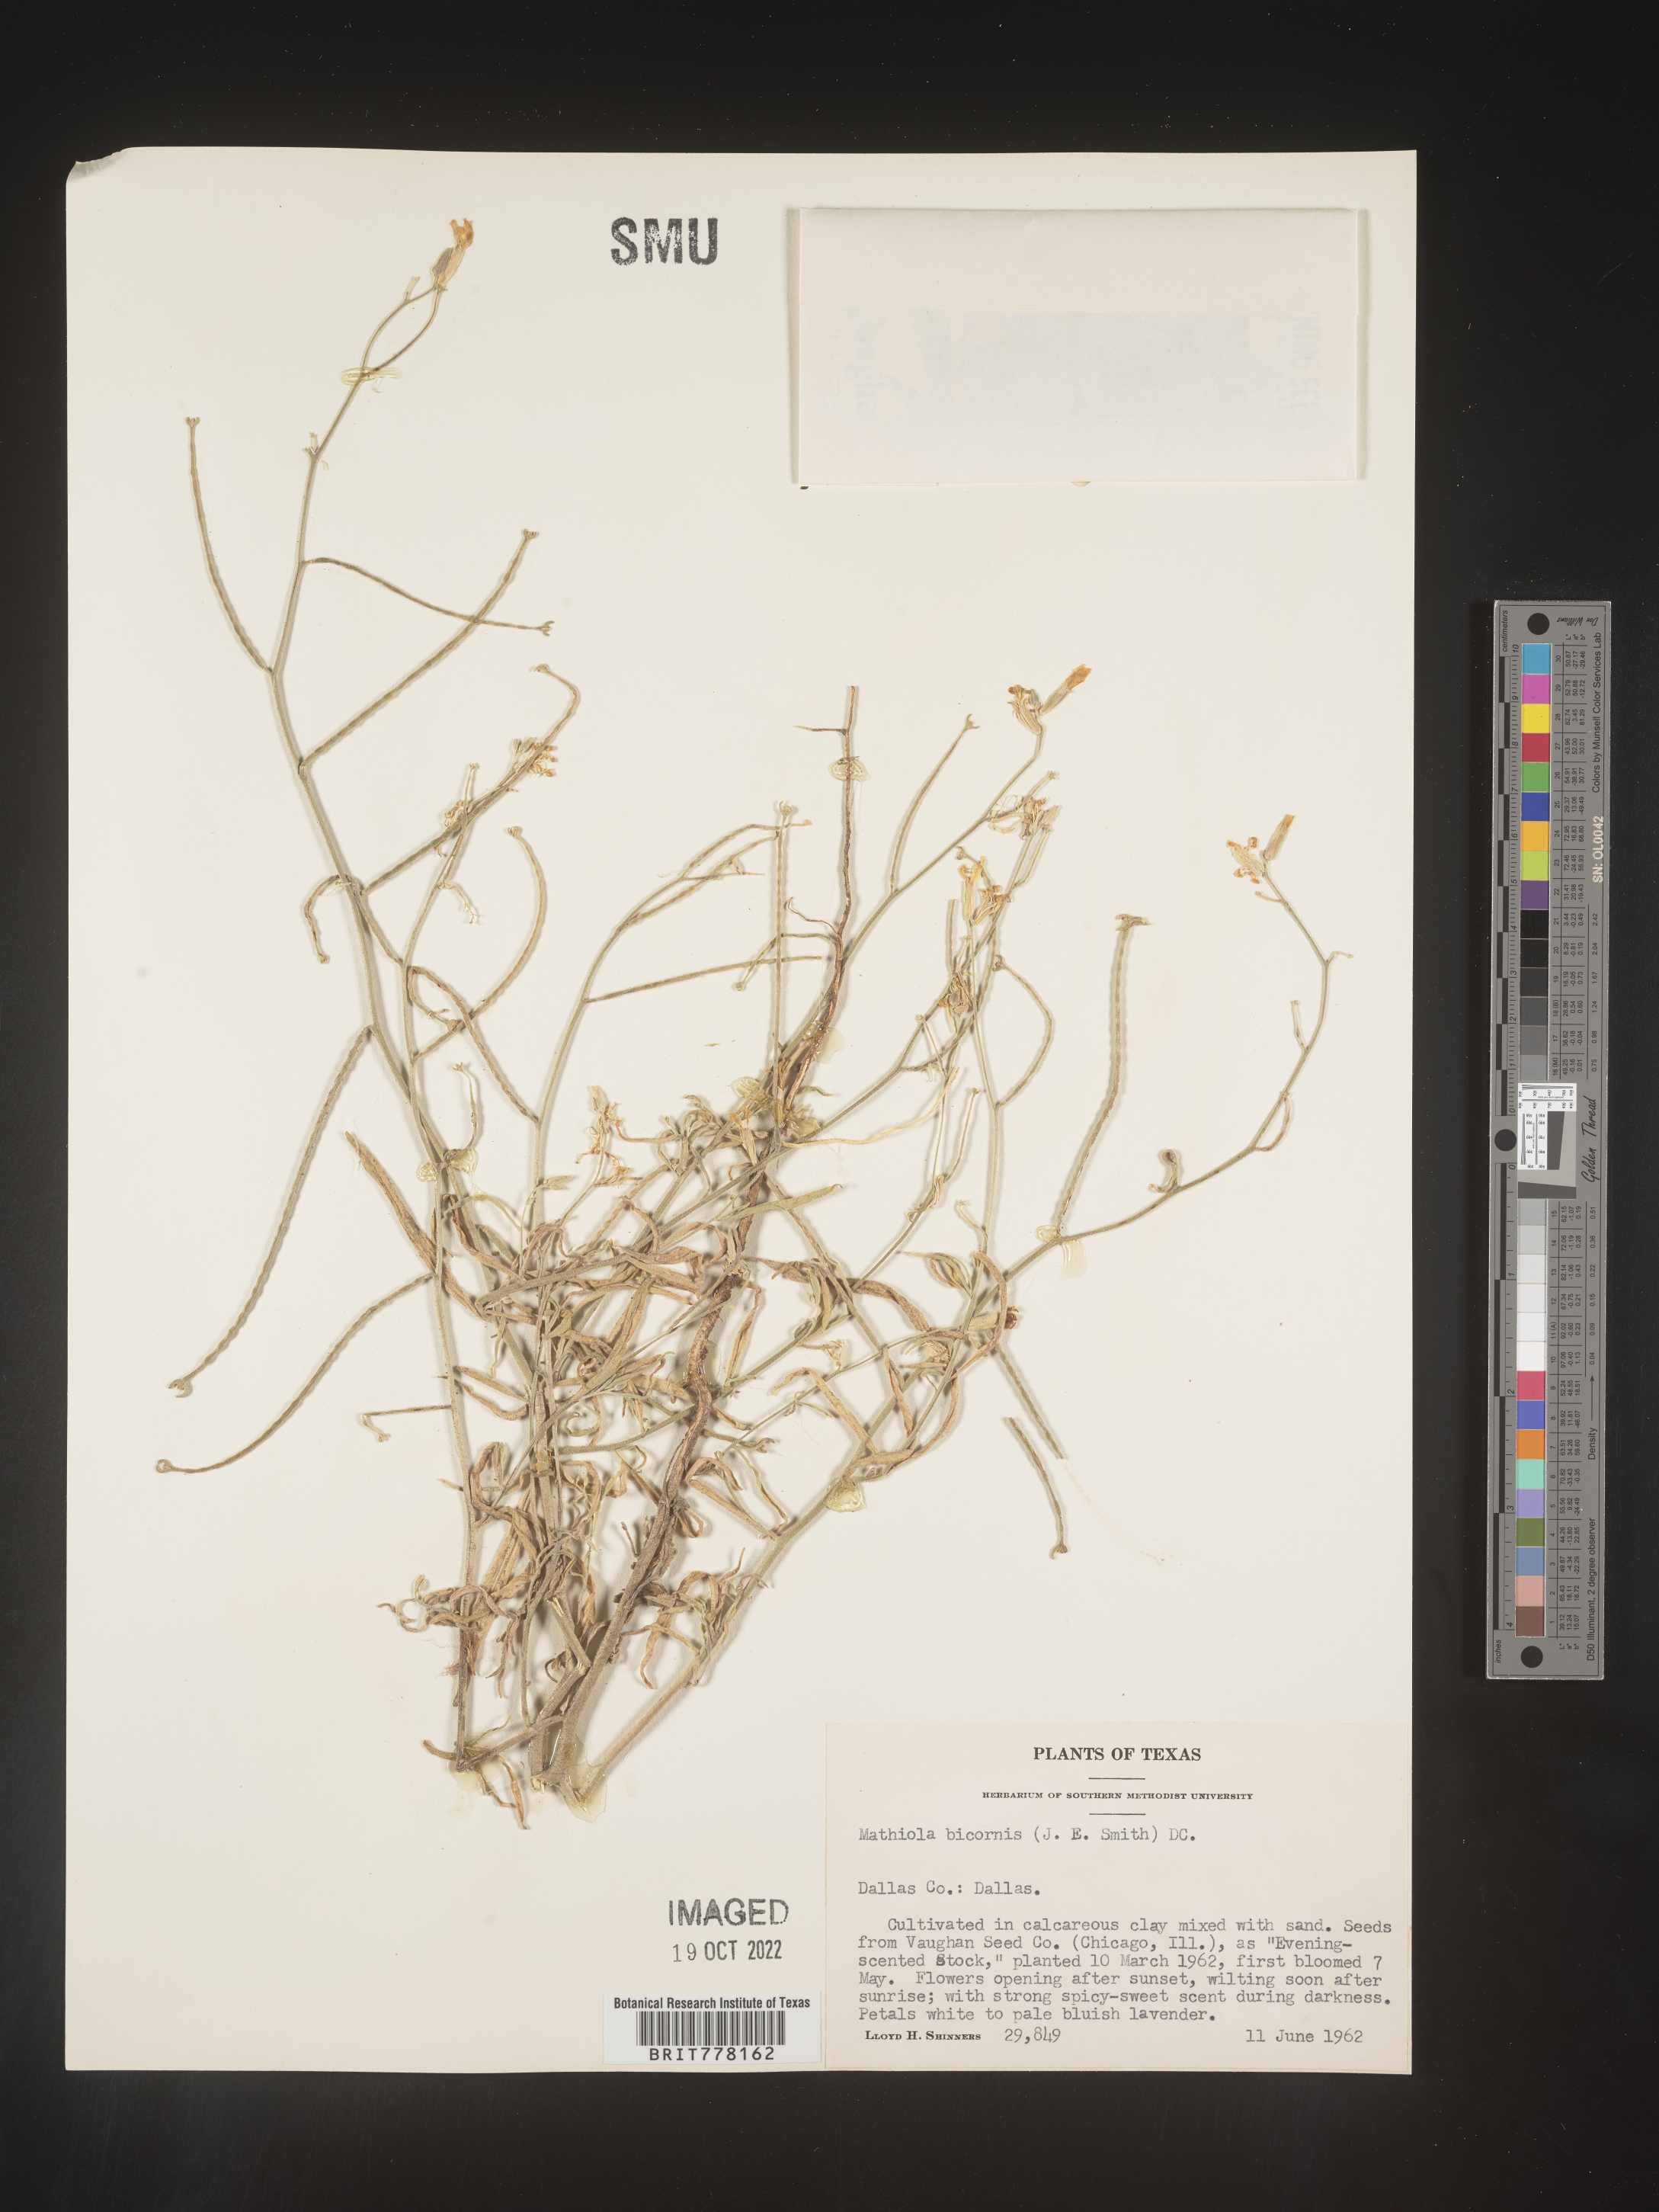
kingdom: Plantae
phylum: Tracheophyta
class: Magnoliopsida
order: Brassicales
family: Brassicaceae
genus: Matthiola
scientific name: Matthiola
